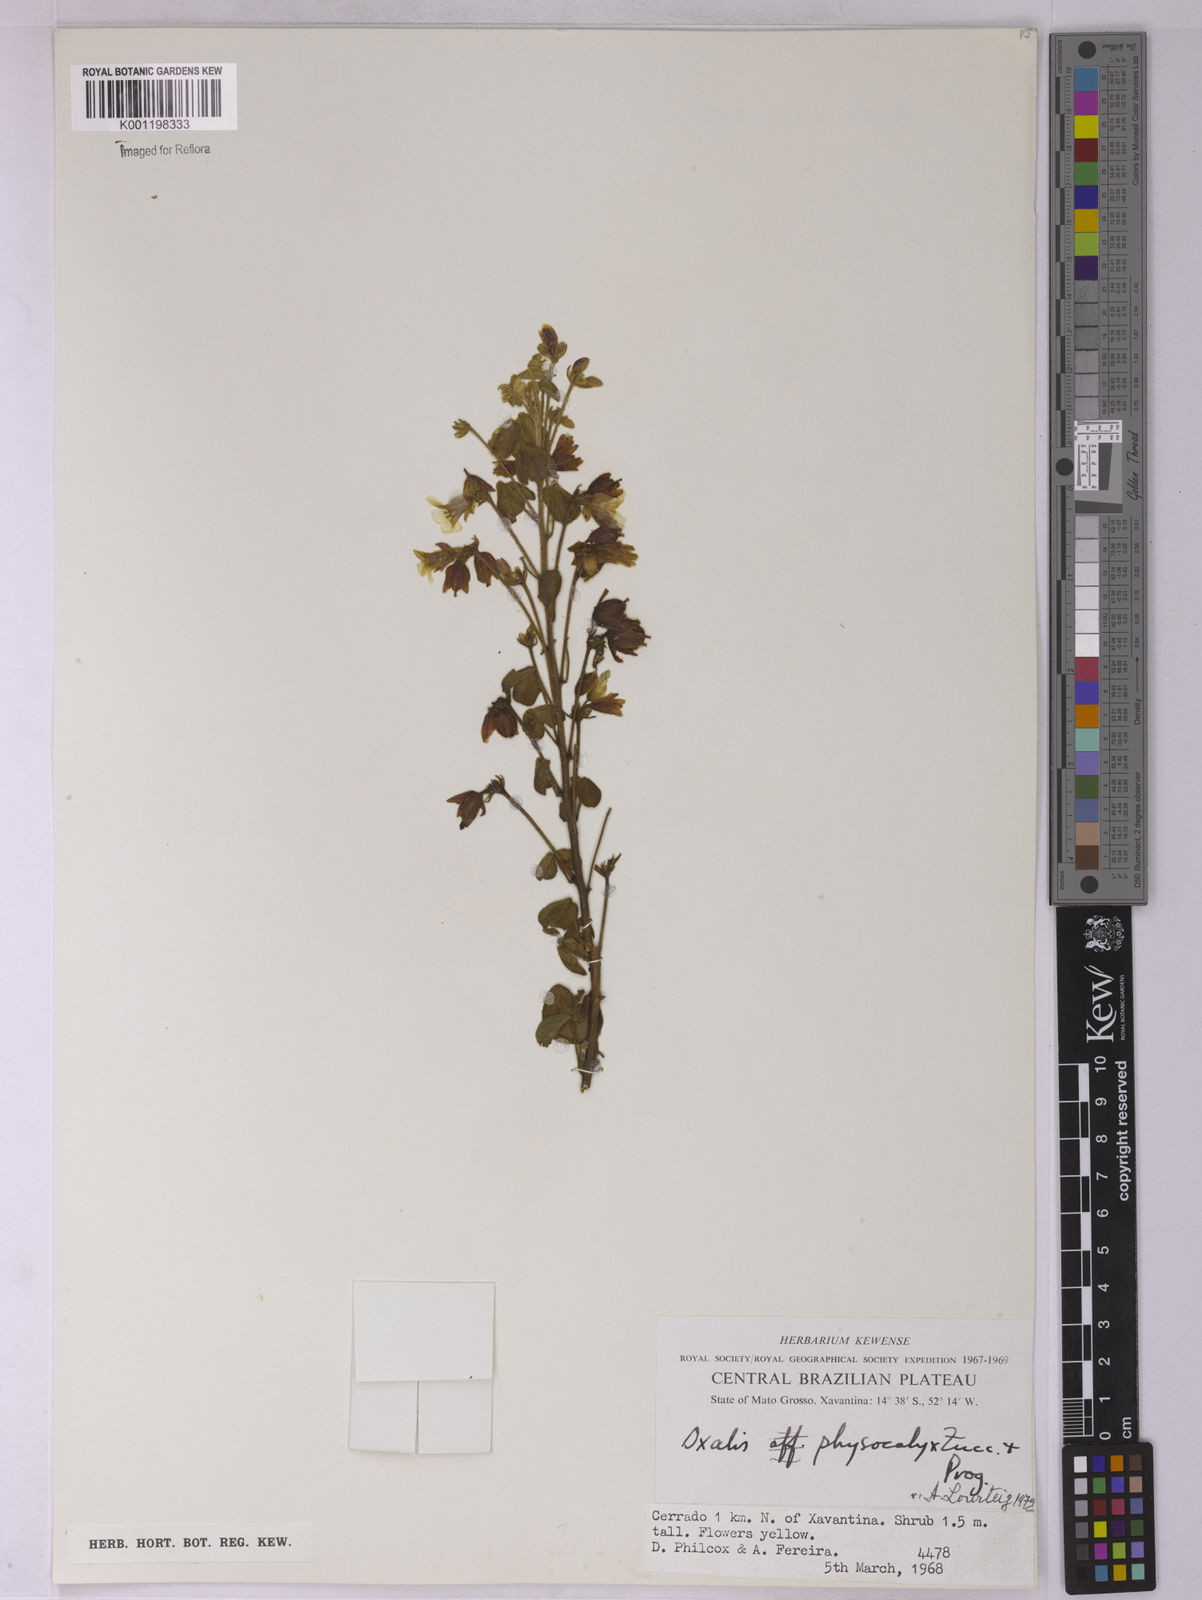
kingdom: Plantae
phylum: Tracheophyta
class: Magnoliopsida
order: Oxalidales
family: Oxalidaceae
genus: Oxalis
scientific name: Oxalis physocalyx
